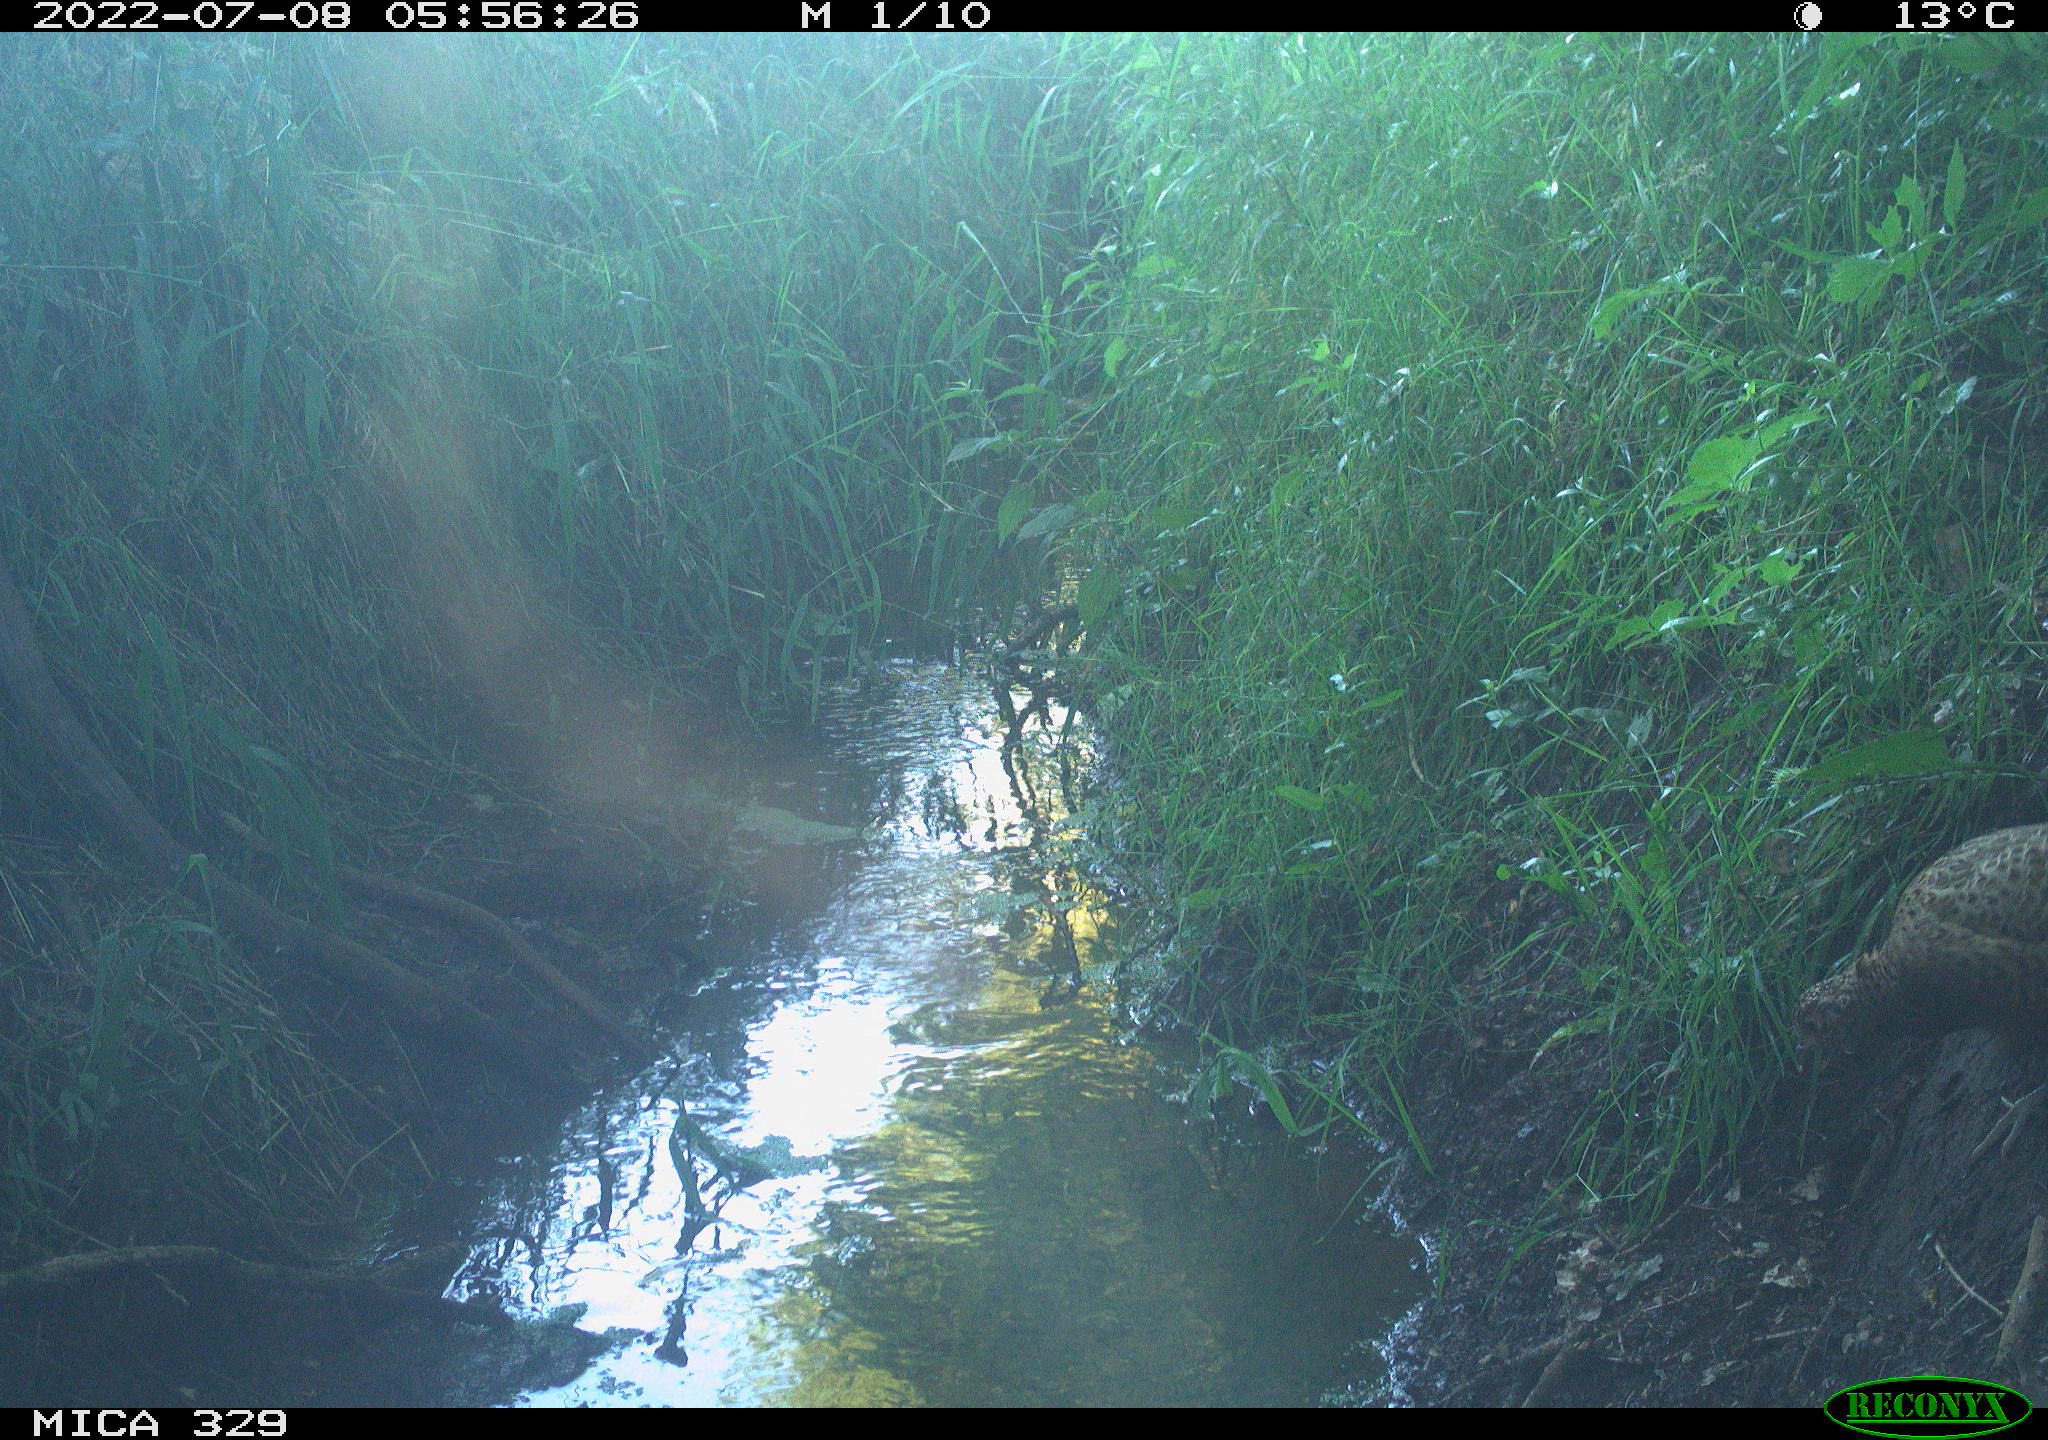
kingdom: Animalia
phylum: Chordata
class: Aves
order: Galliformes
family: Phasianidae
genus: Phasianus
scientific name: Phasianus colchicus
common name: Common pheasant
